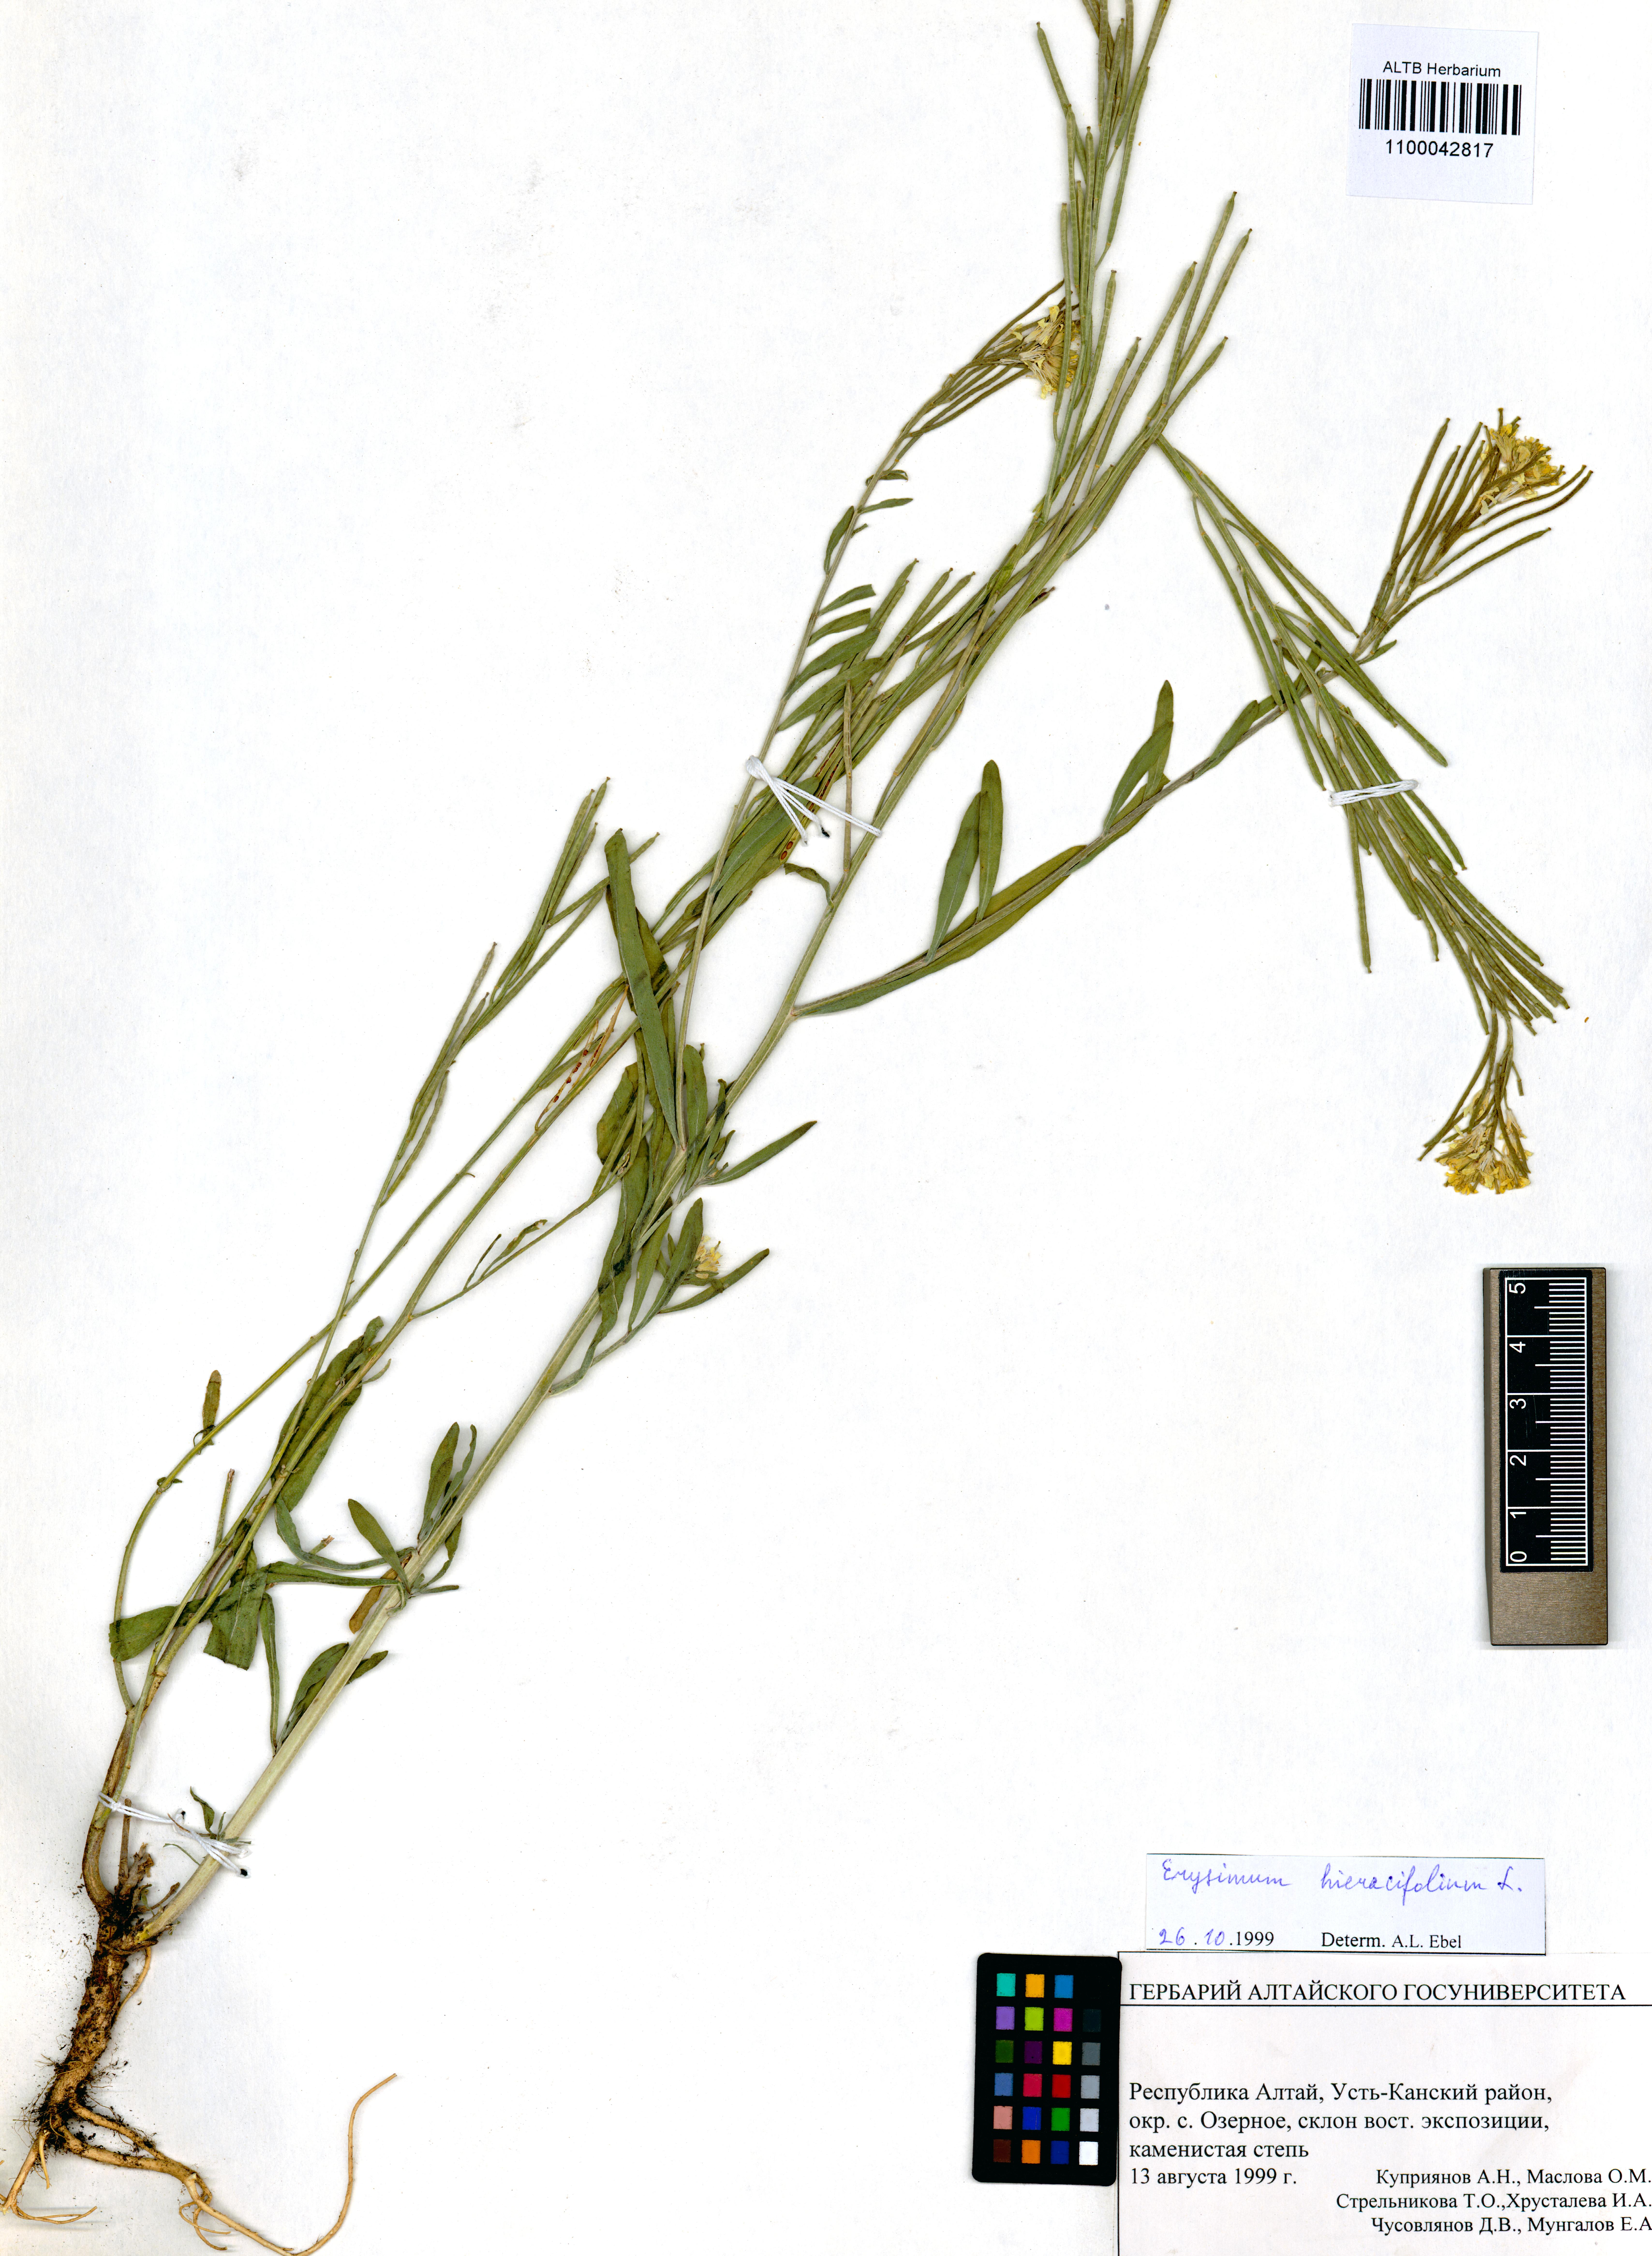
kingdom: Plantae
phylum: Tracheophyta
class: Magnoliopsida
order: Brassicales
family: Brassicaceae
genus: Erysimum
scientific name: Erysimum hieraciifolium
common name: European wallflower
